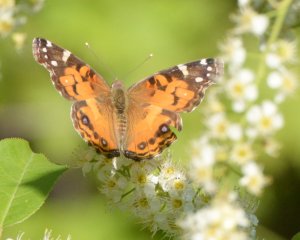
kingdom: Animalia
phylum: Arthropoda
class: Insecta
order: Lepidoptera
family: Nymphalidae
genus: Vanessa
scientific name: Vanessa virginiensis
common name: American Lady
